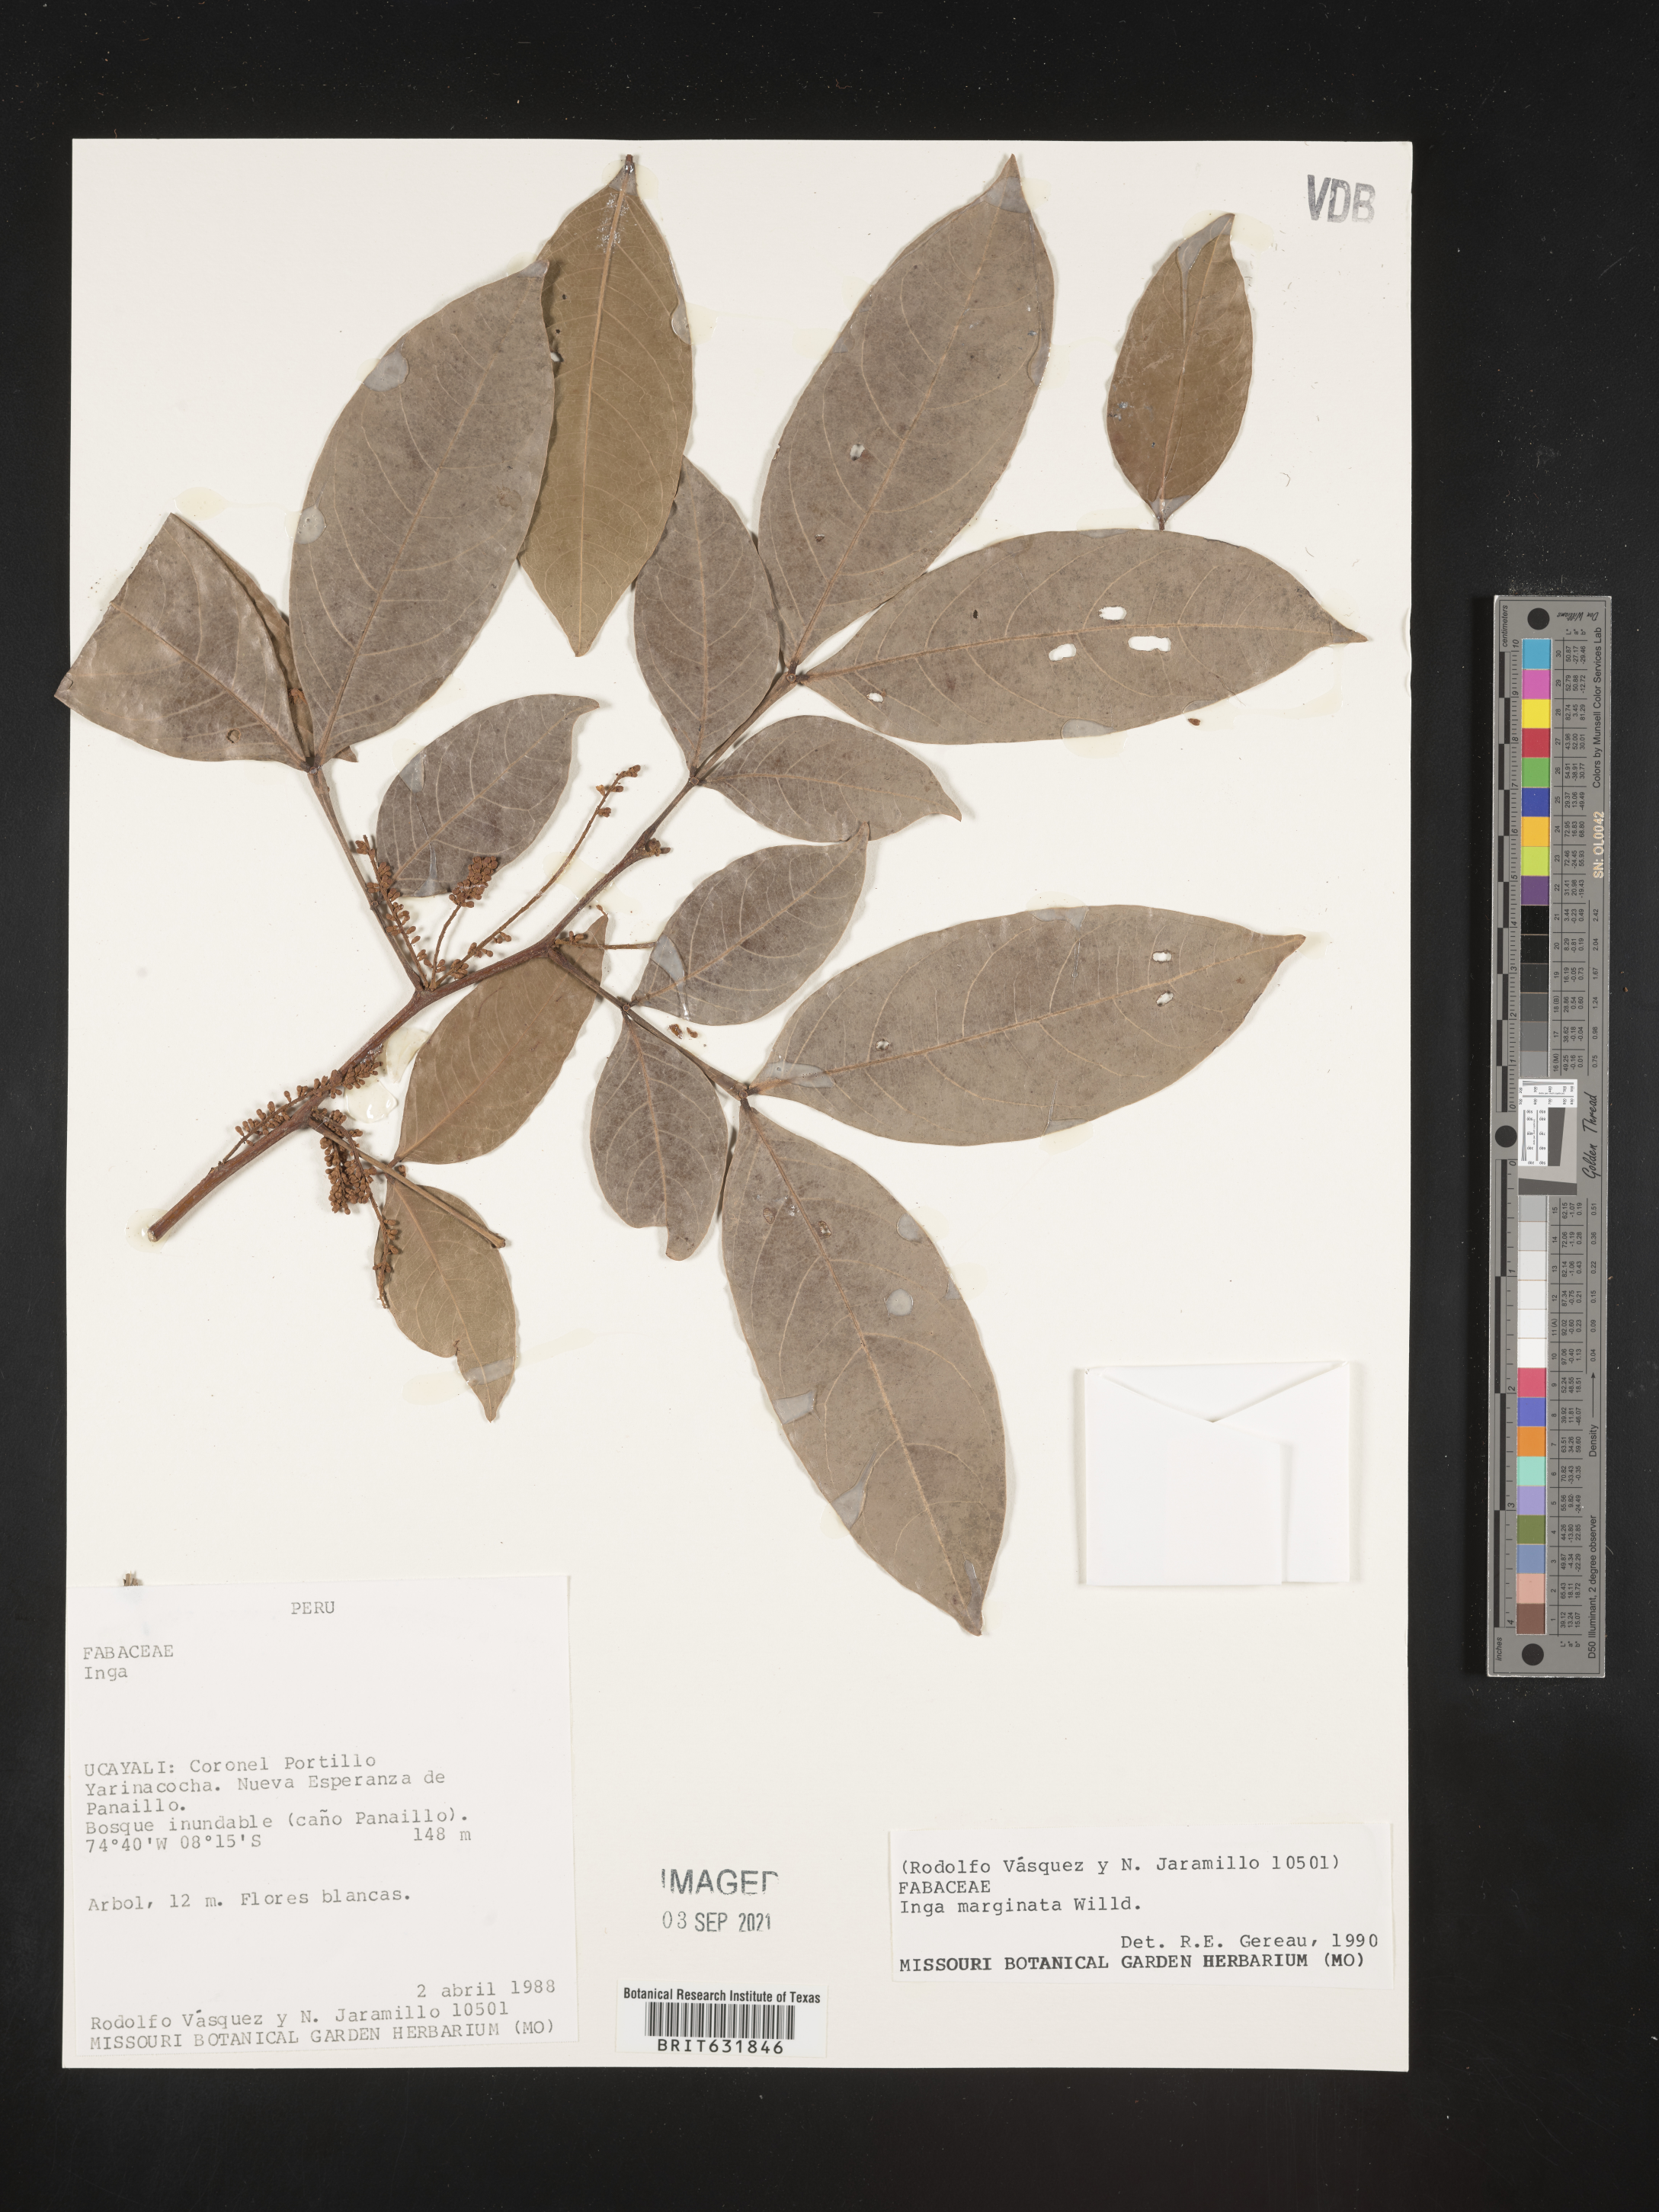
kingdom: Plantae
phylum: Tracheophyta
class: Magnoliopsida
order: Fabales
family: Fabaceae
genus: Inga
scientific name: Inga
